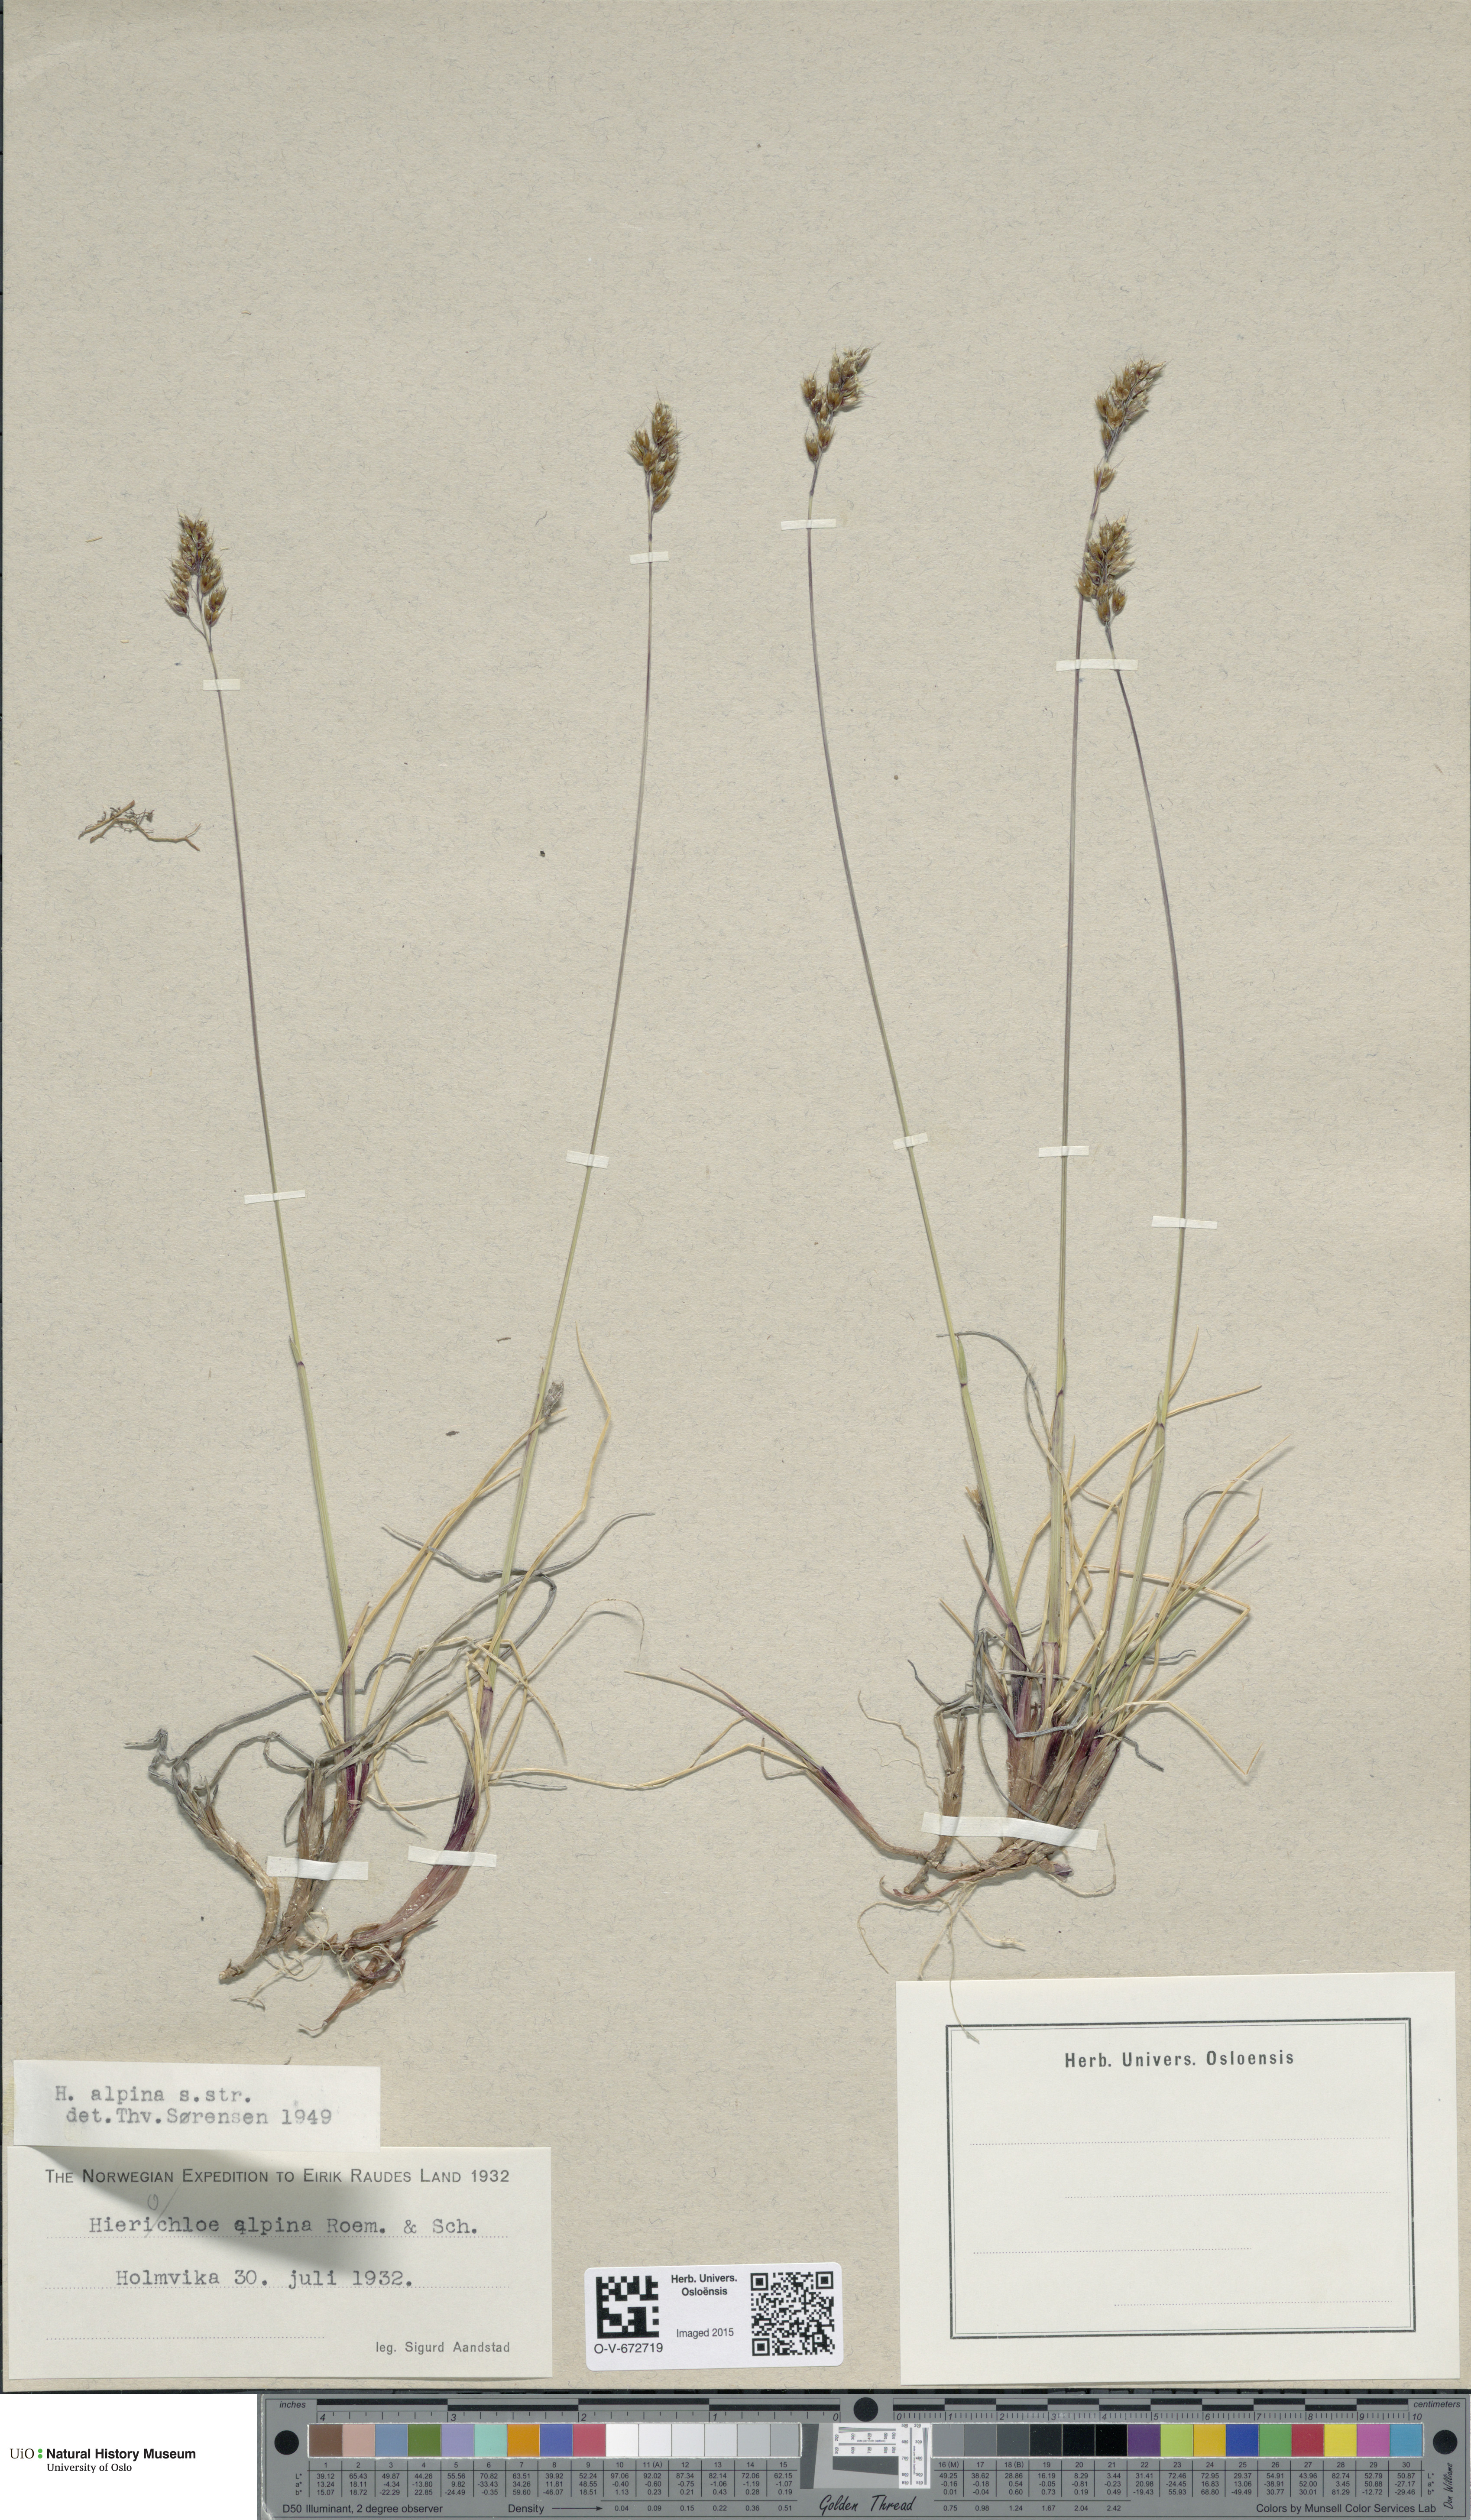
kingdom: Plantae
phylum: Tracheophyta
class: Liliopsida
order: Poales
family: Poaceae
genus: Anthoxanthum
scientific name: Anthoxanthum monticola
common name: Alpine sweetgrass
